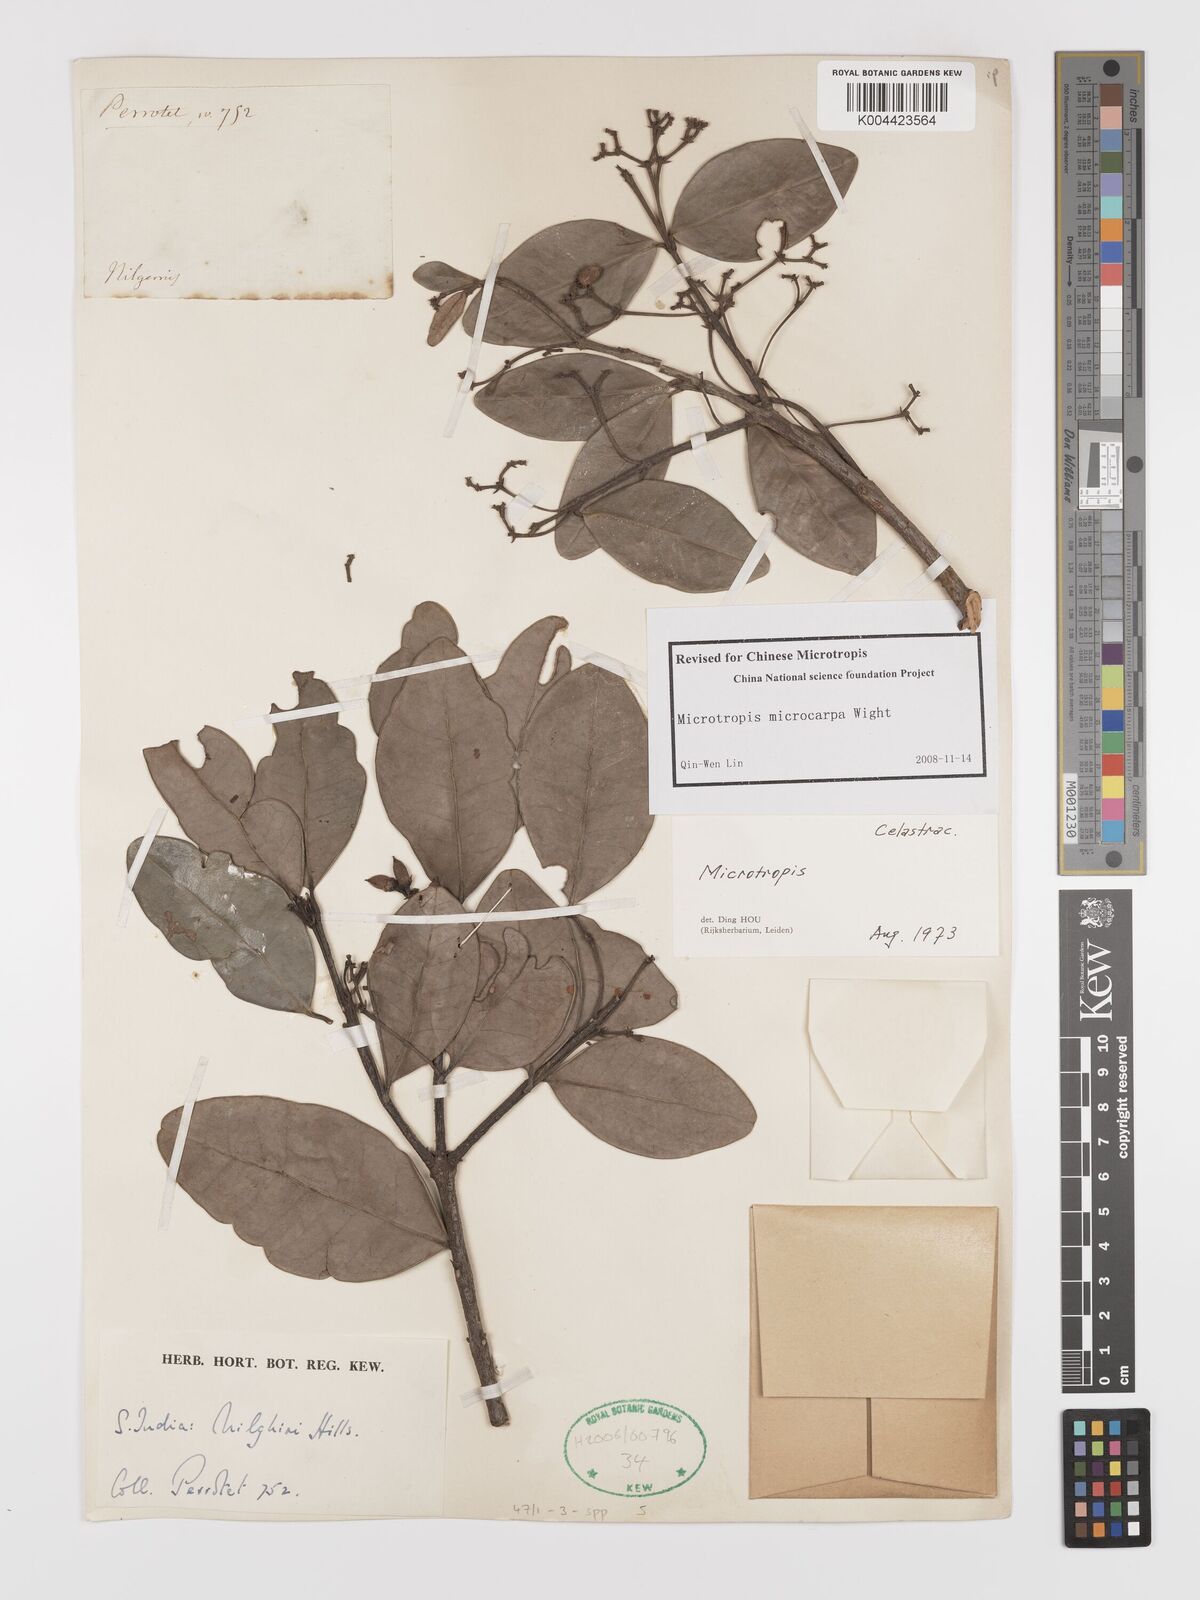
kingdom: Plantae
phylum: Tracheophyta
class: Magnoliopsida
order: Celastrales
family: Celastraceae
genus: Microtropis
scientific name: Microtropis microcarpa
